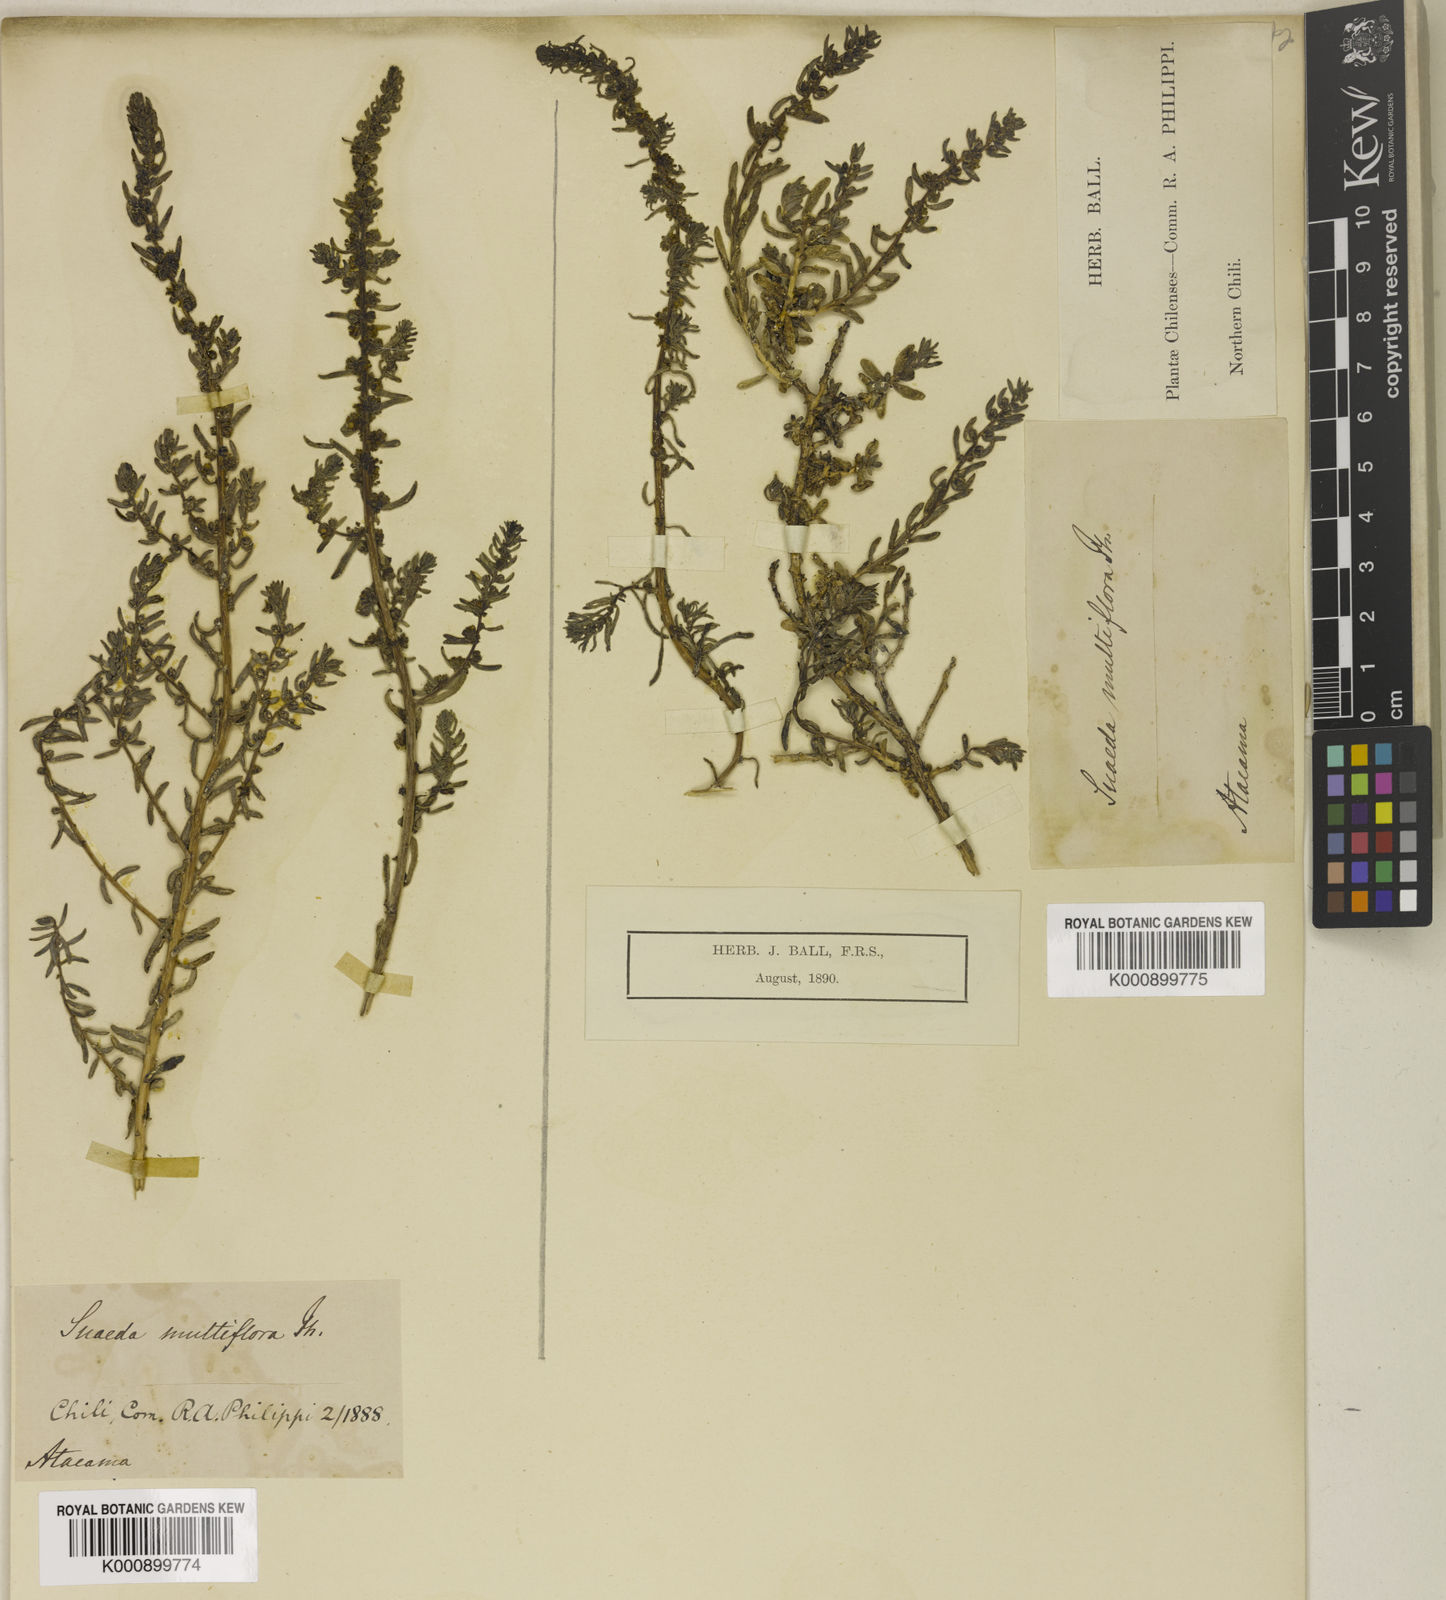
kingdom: Plantae
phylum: Tracheophyta
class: Magnoliopsida
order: Caryophyllales
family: Amaranthaceae
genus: Suaeda
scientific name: Suaeda multiflora
